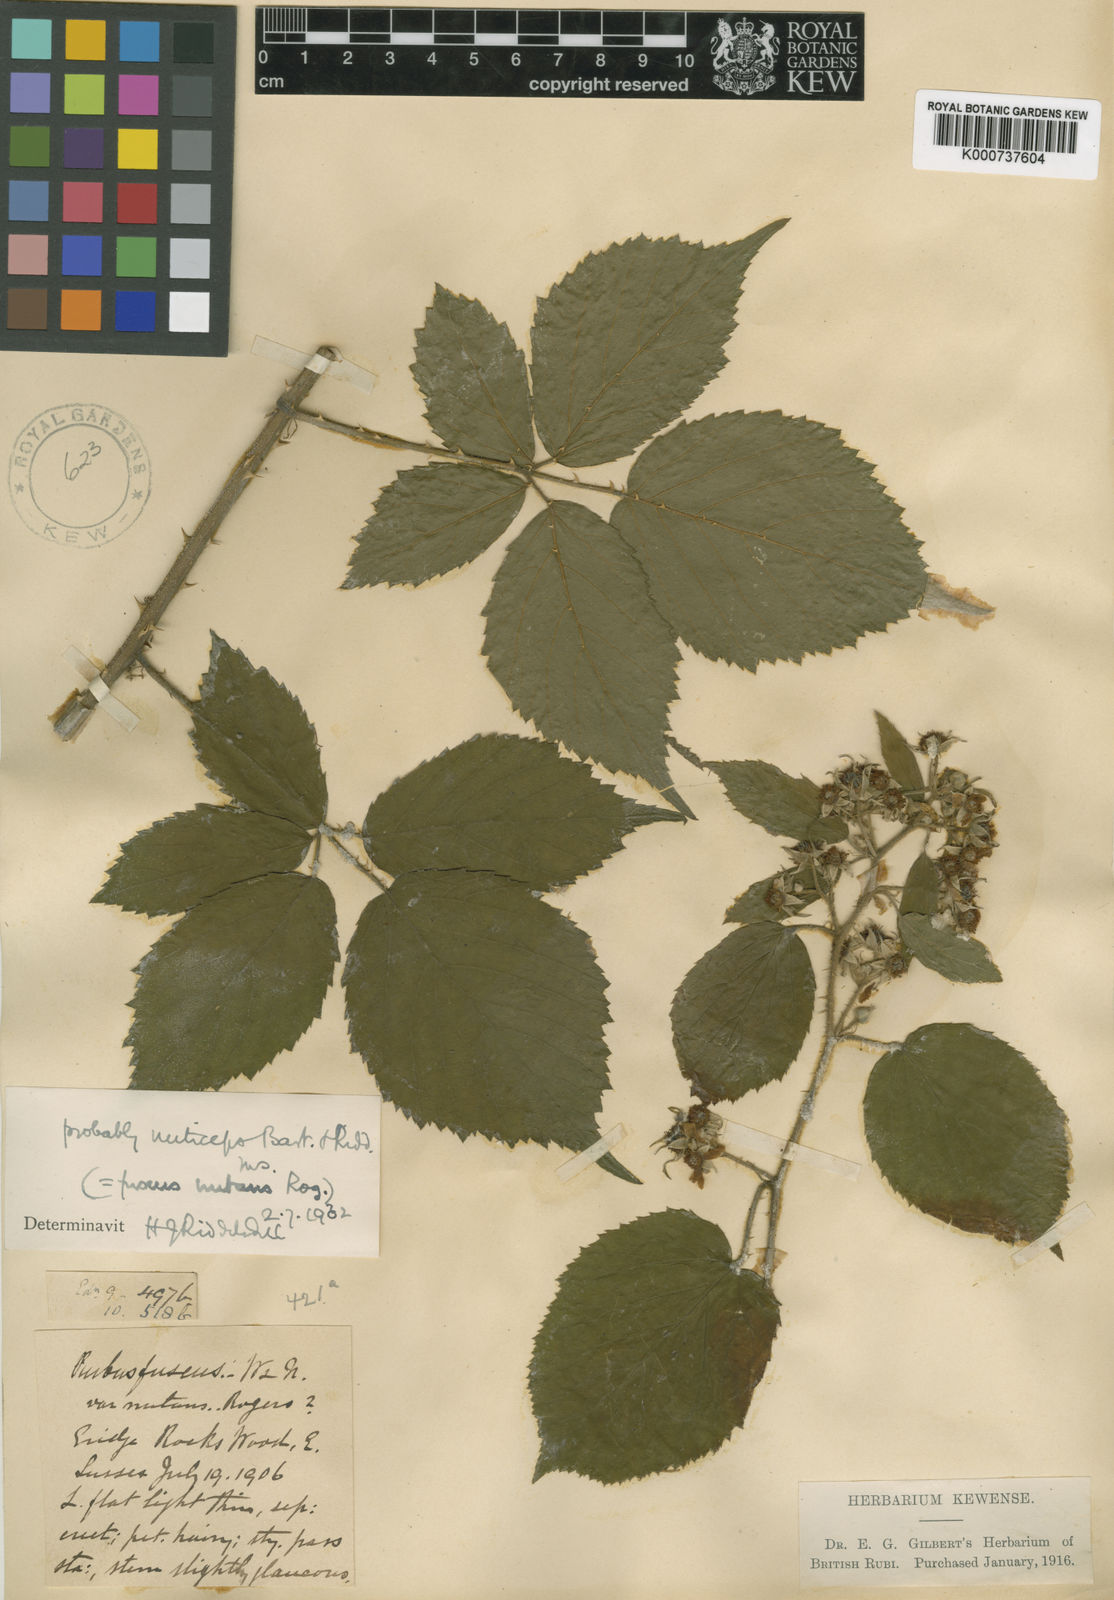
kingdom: Plantae
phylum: Tracheophyta
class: Magnoliopsida
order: Rosales
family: Rosaceae
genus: Rubus
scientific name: Rubus
